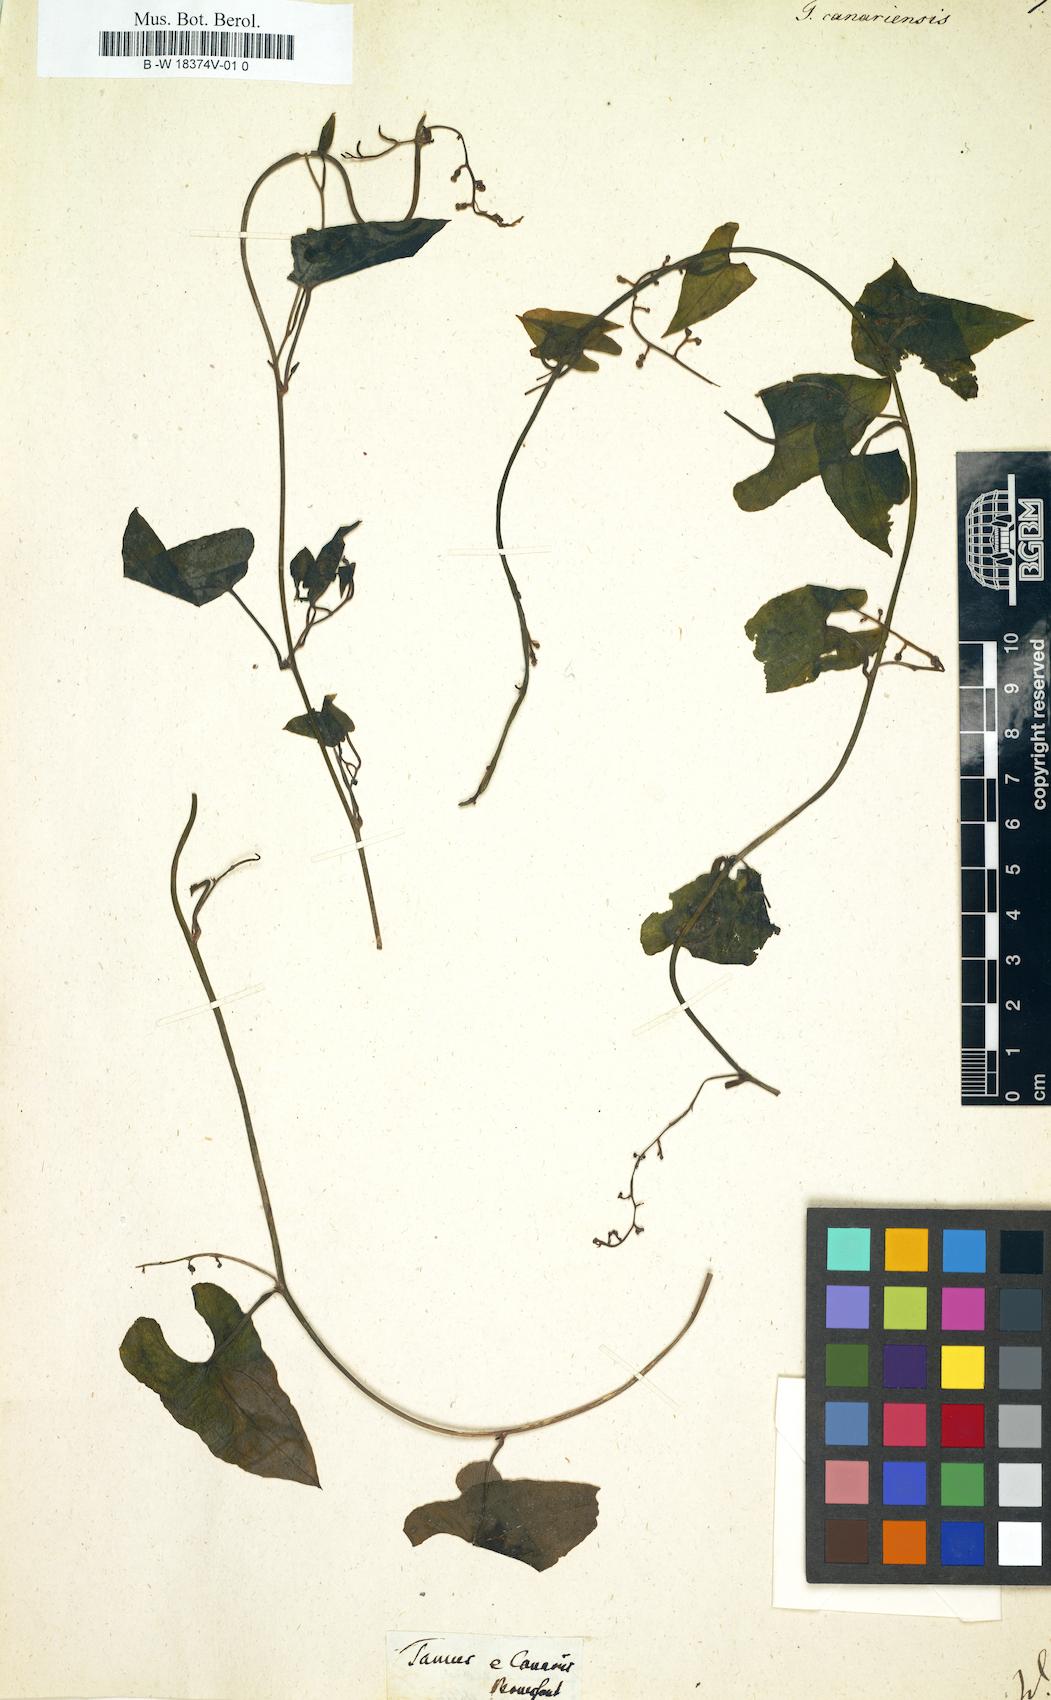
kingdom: Plantae
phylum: Tracheophyta
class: Liliopsida
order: Dioscoreales
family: Dioscoreaceae
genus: Dioscorea
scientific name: Dioscorea communis
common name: Black-bindweed
